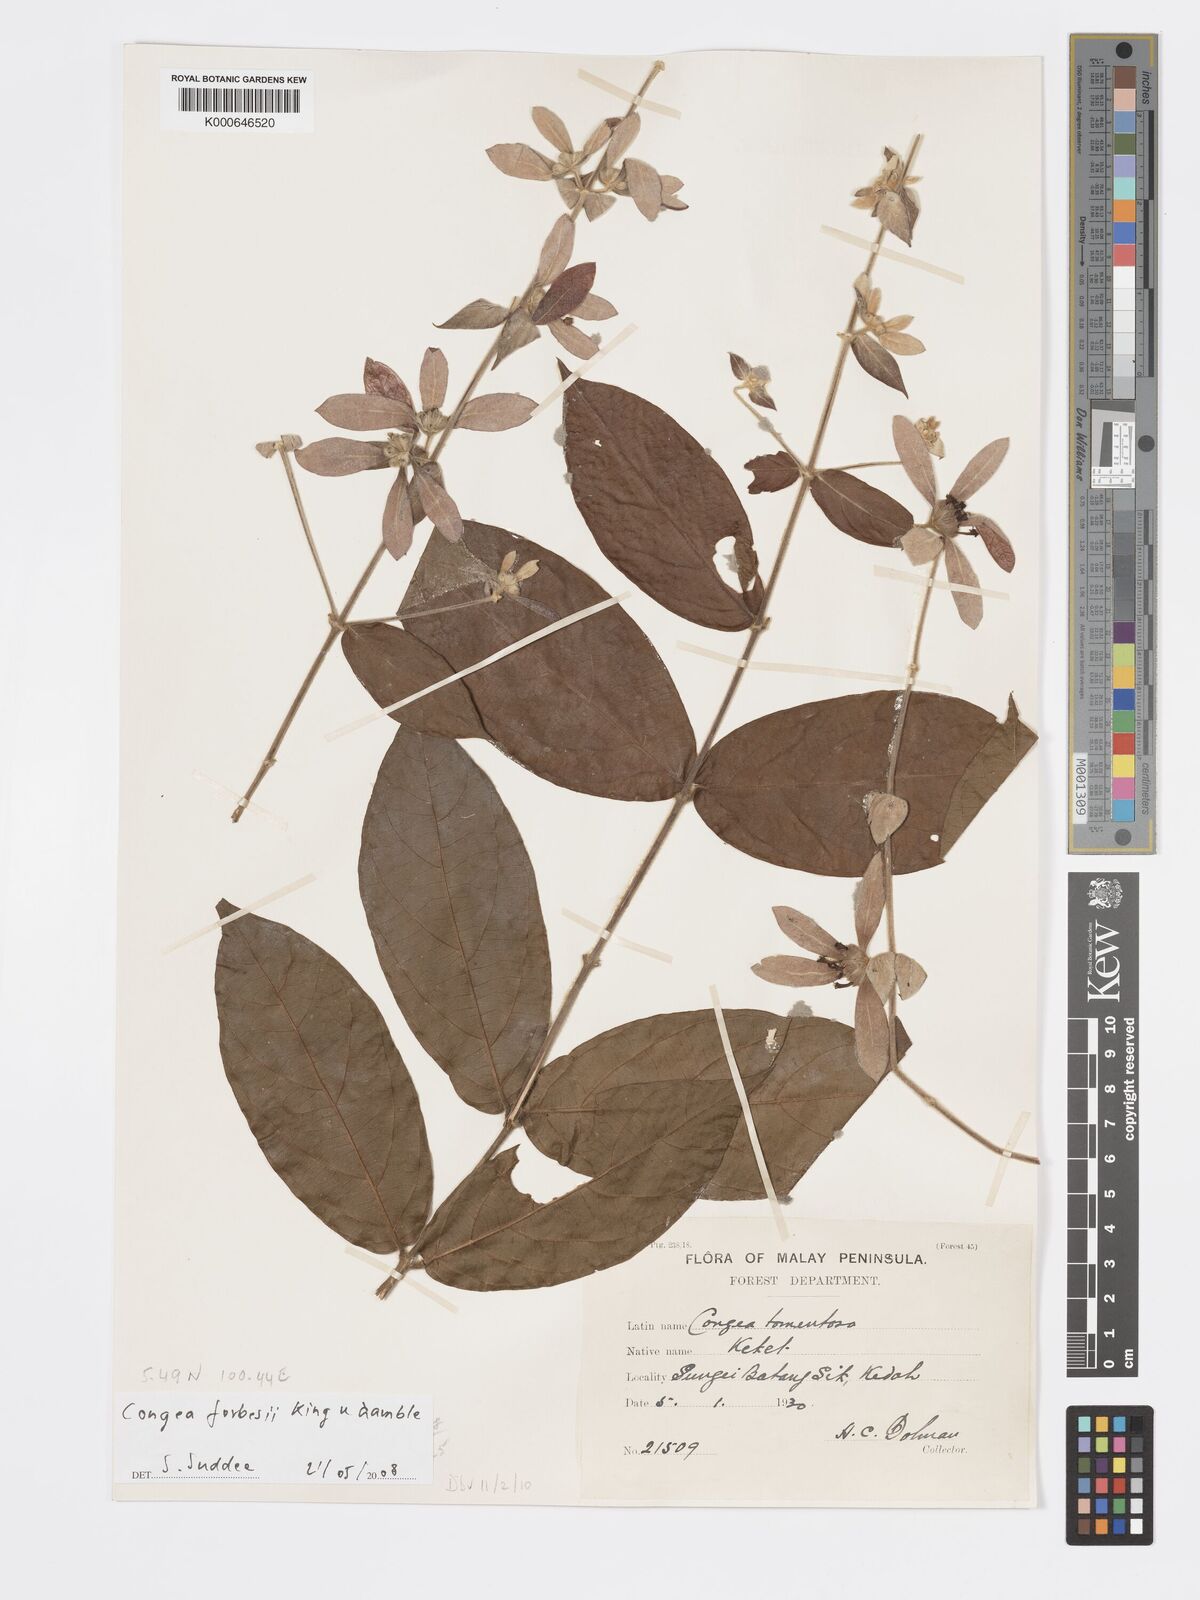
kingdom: Plantae
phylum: Tracheophyta
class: Magnoliopsida
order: Lamiales
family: Lamiaceae
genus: Congea
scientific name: Congea
